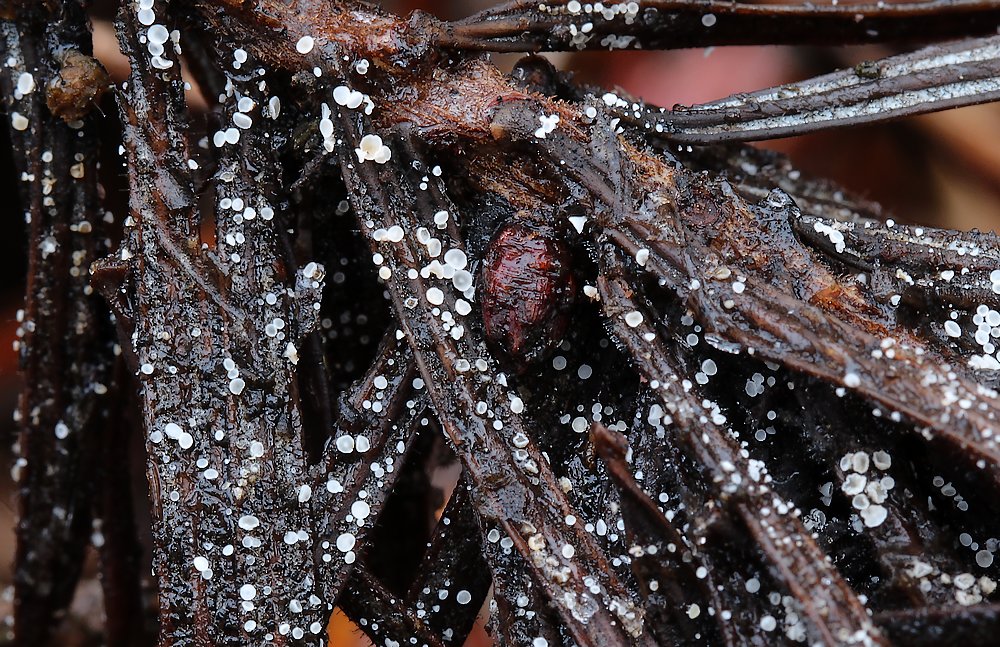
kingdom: Fungi
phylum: Ascomycota
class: Leotiomycetes
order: Helotiales
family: Hyaloscyphaceae
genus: Cistella
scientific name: Cistella acuum
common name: nåle-sirskive
